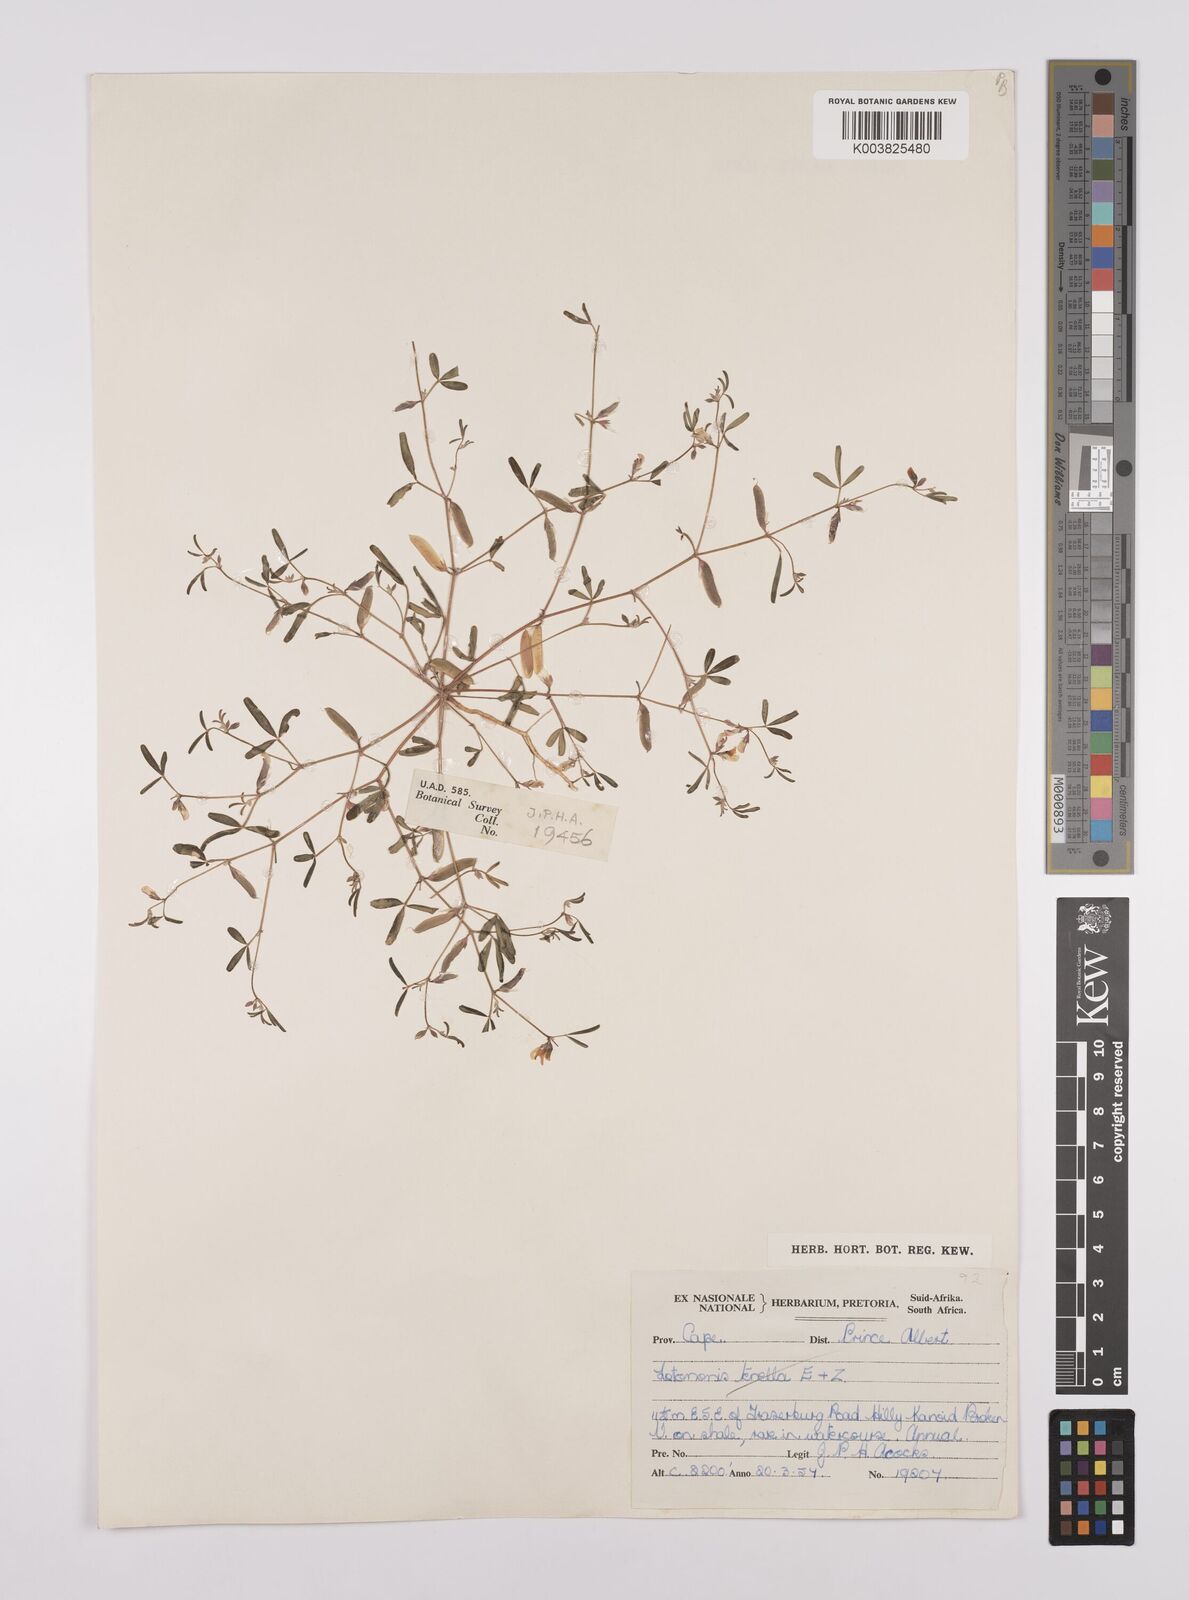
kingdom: Plantae
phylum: Tracheophyta
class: Magnoliopsida
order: Fabales
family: Fabaceae
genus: Lotononis
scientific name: Lotononis falcata
